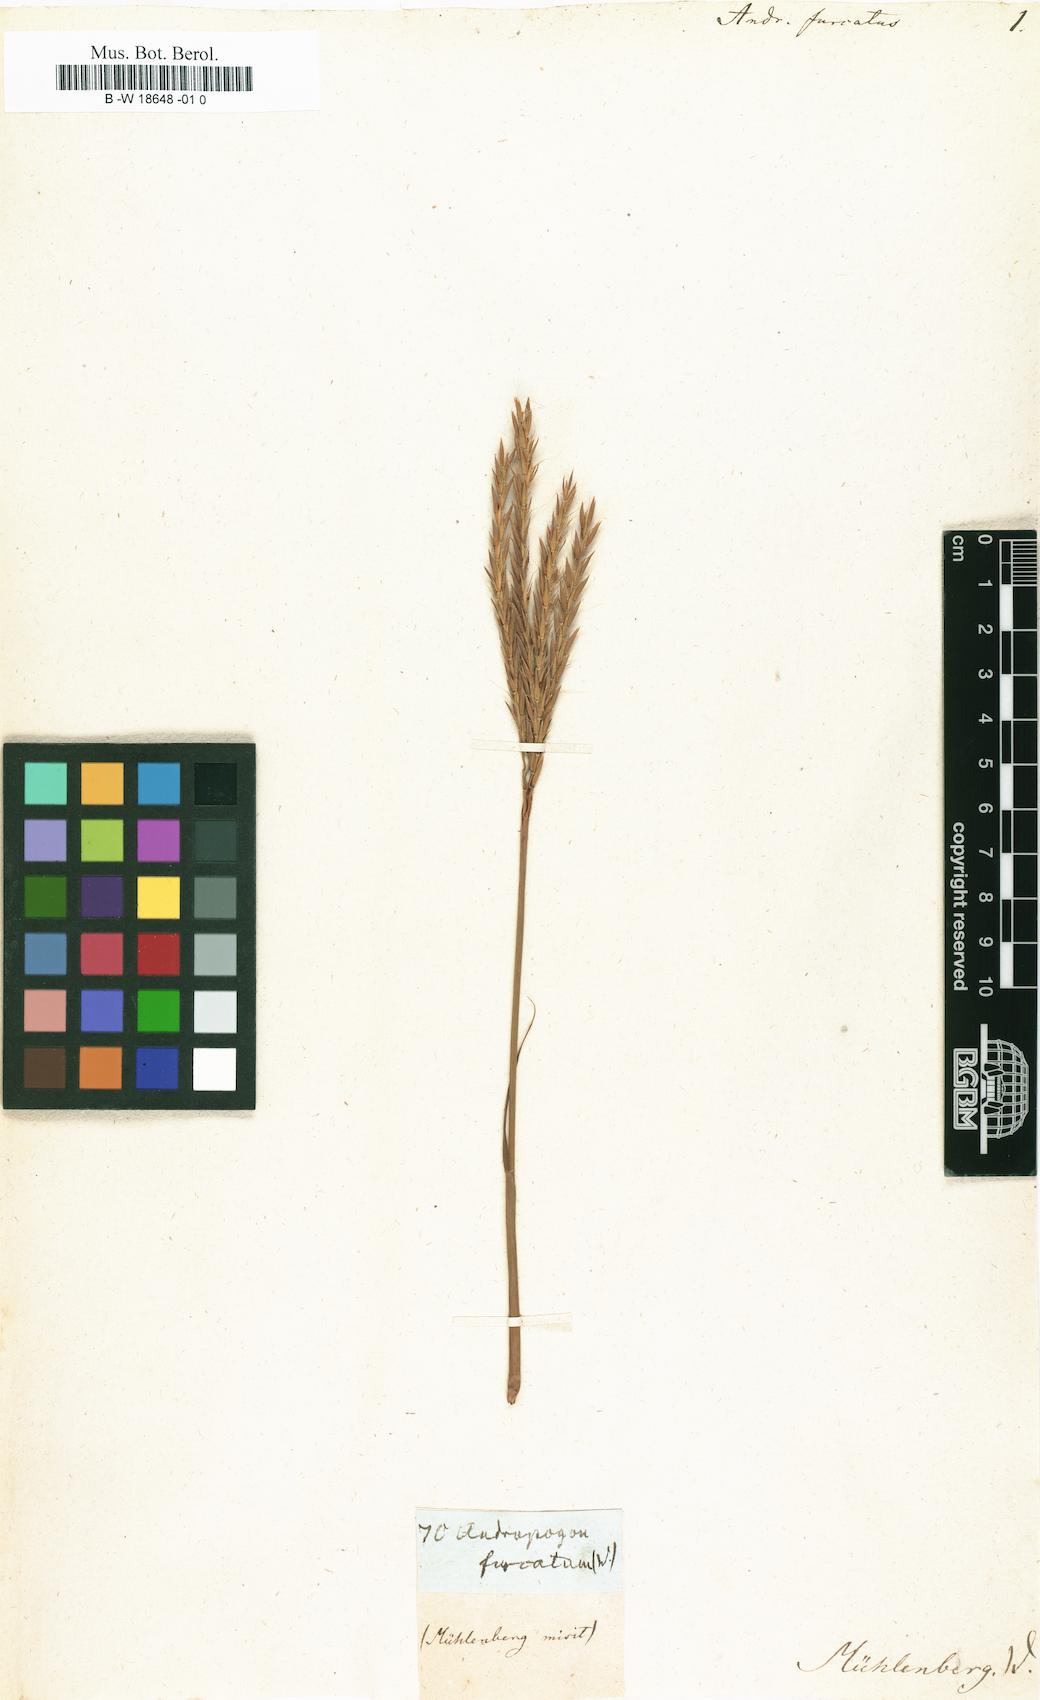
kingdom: Plantae
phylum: Tracheophyta
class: Liliopsida
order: Poales
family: Poaceae
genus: Andropogon
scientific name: Andropogon gerardi
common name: Big bluestem
